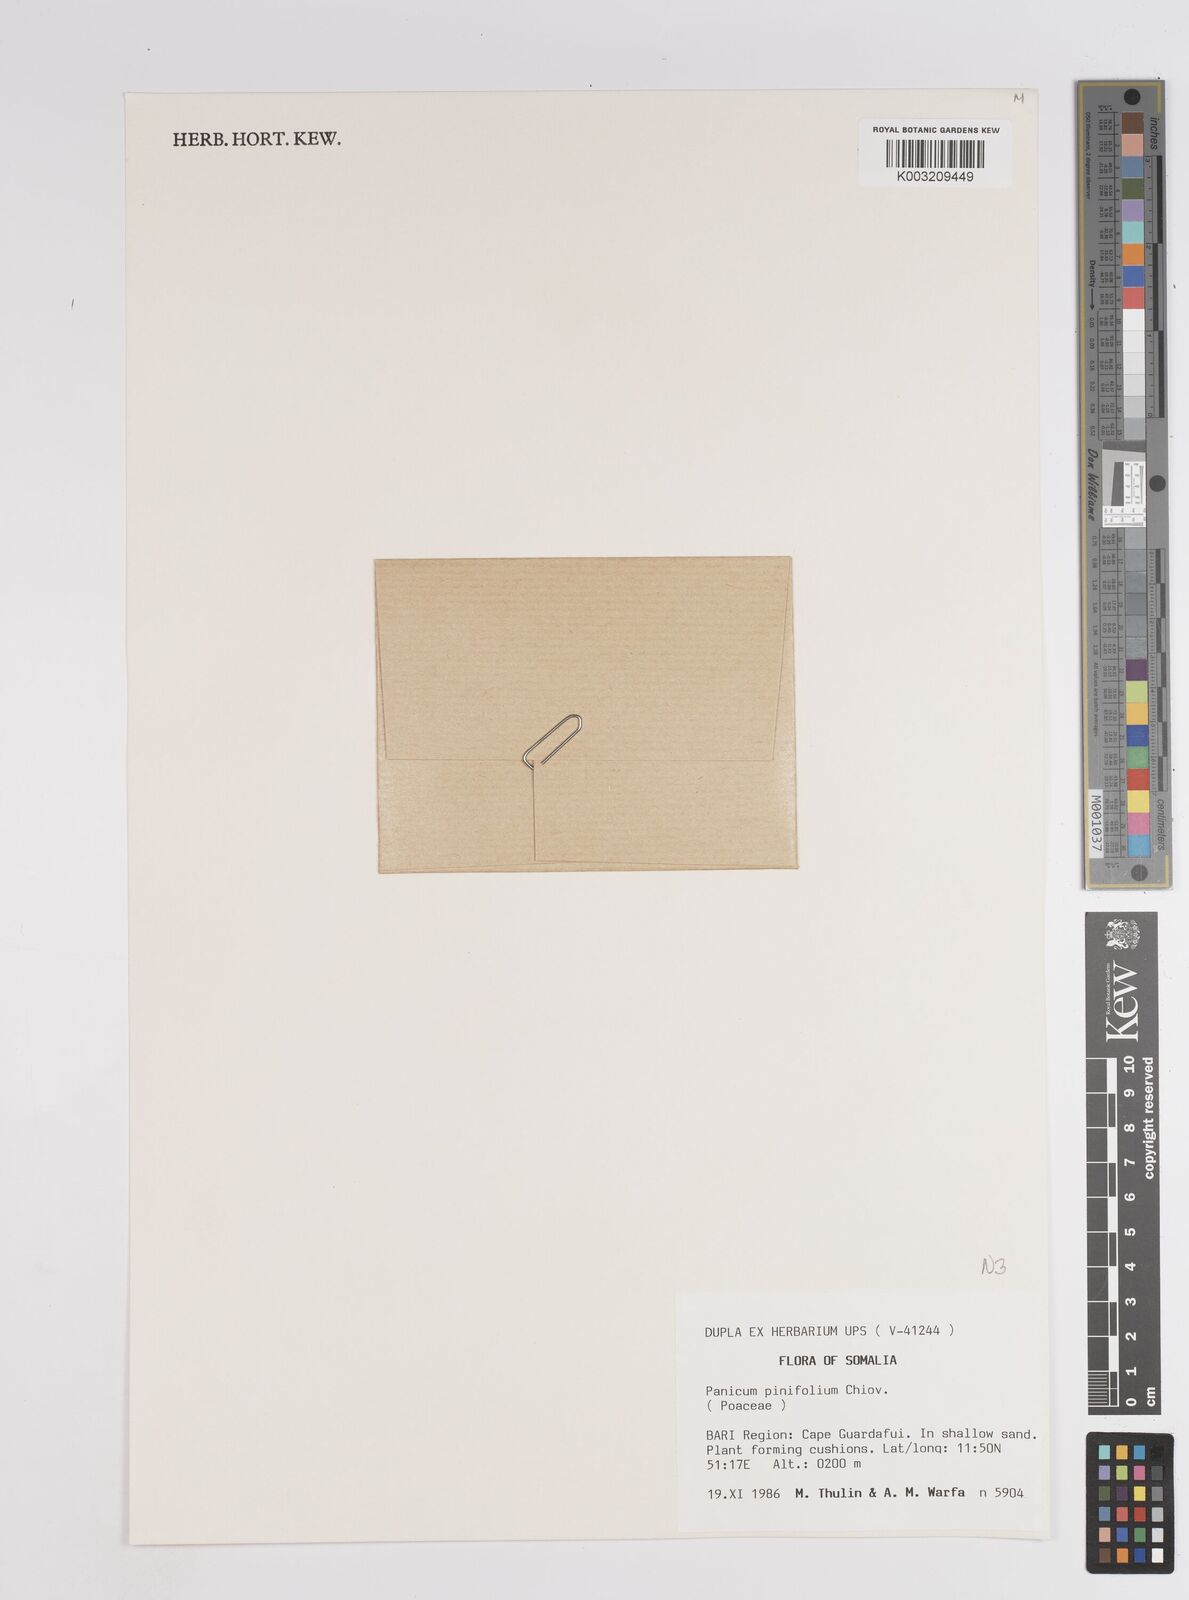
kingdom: Plantae
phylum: Tracheophyta
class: Liliopsida
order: Poales
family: Poaceae
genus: Panicum
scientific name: Panicum pinifolium
